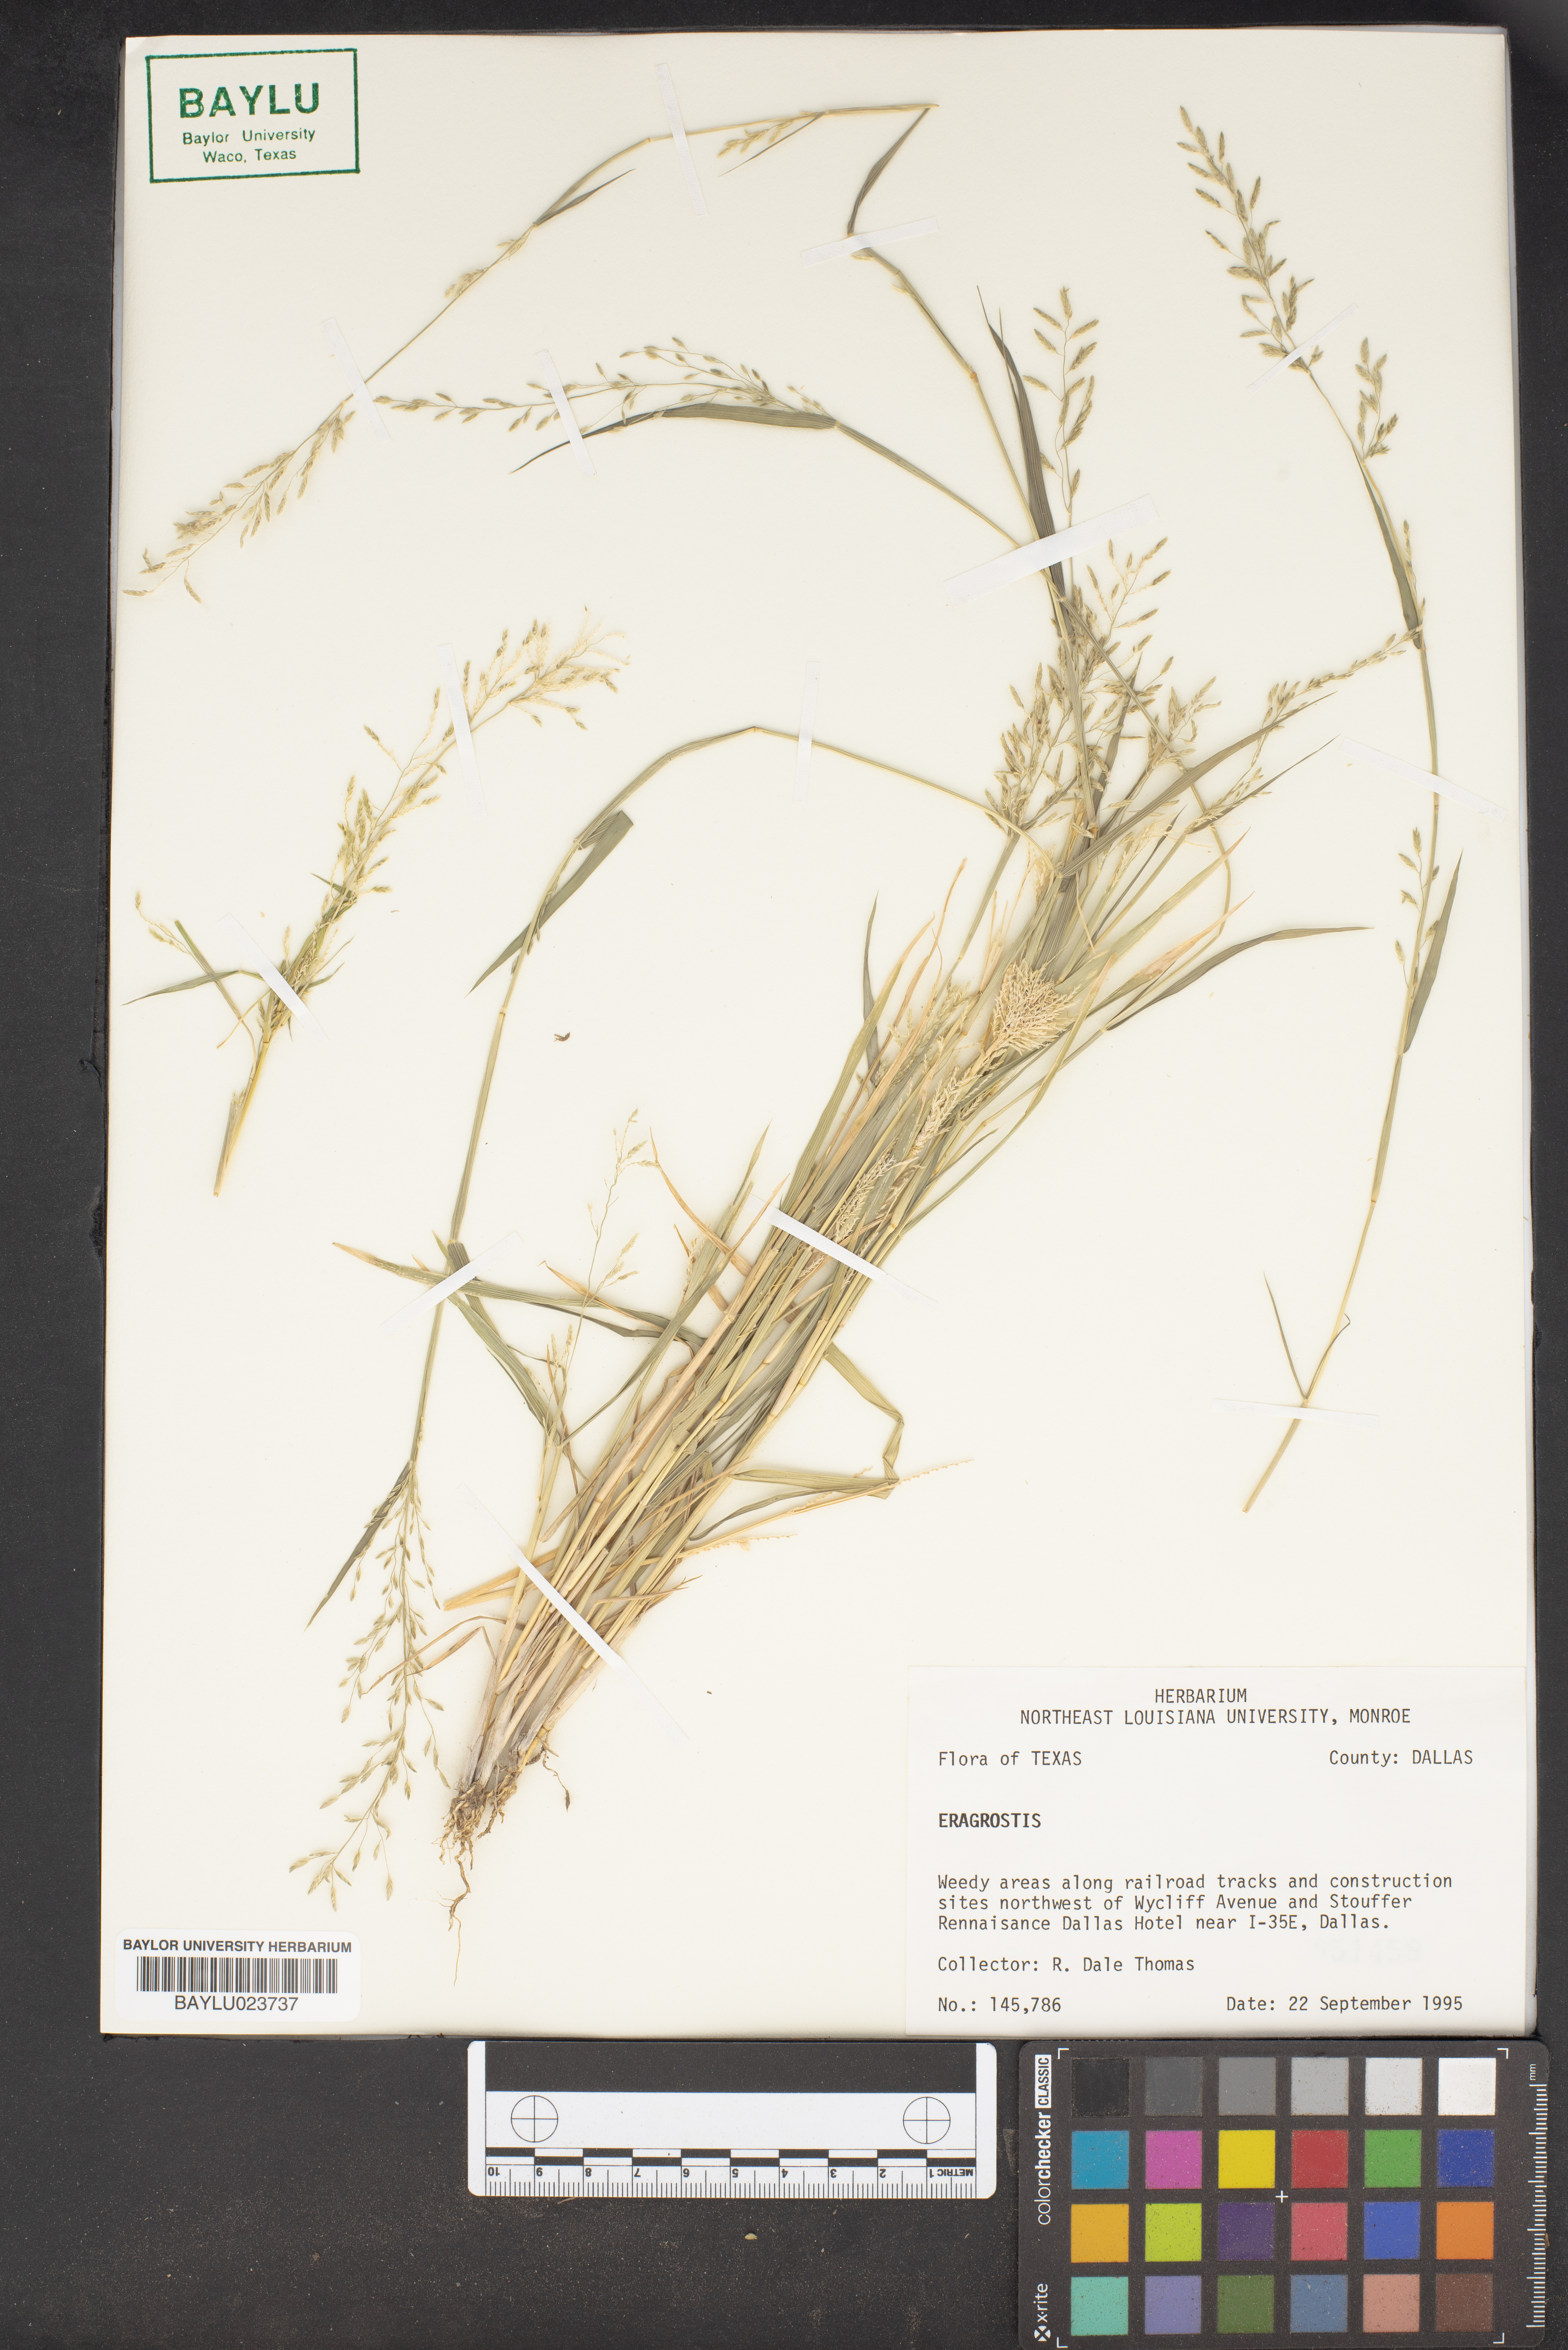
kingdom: Plantae
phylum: Tracheophyta
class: Liliopsida
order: Poales
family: Poaceae
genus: Eragrostis
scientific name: Eragrostis
